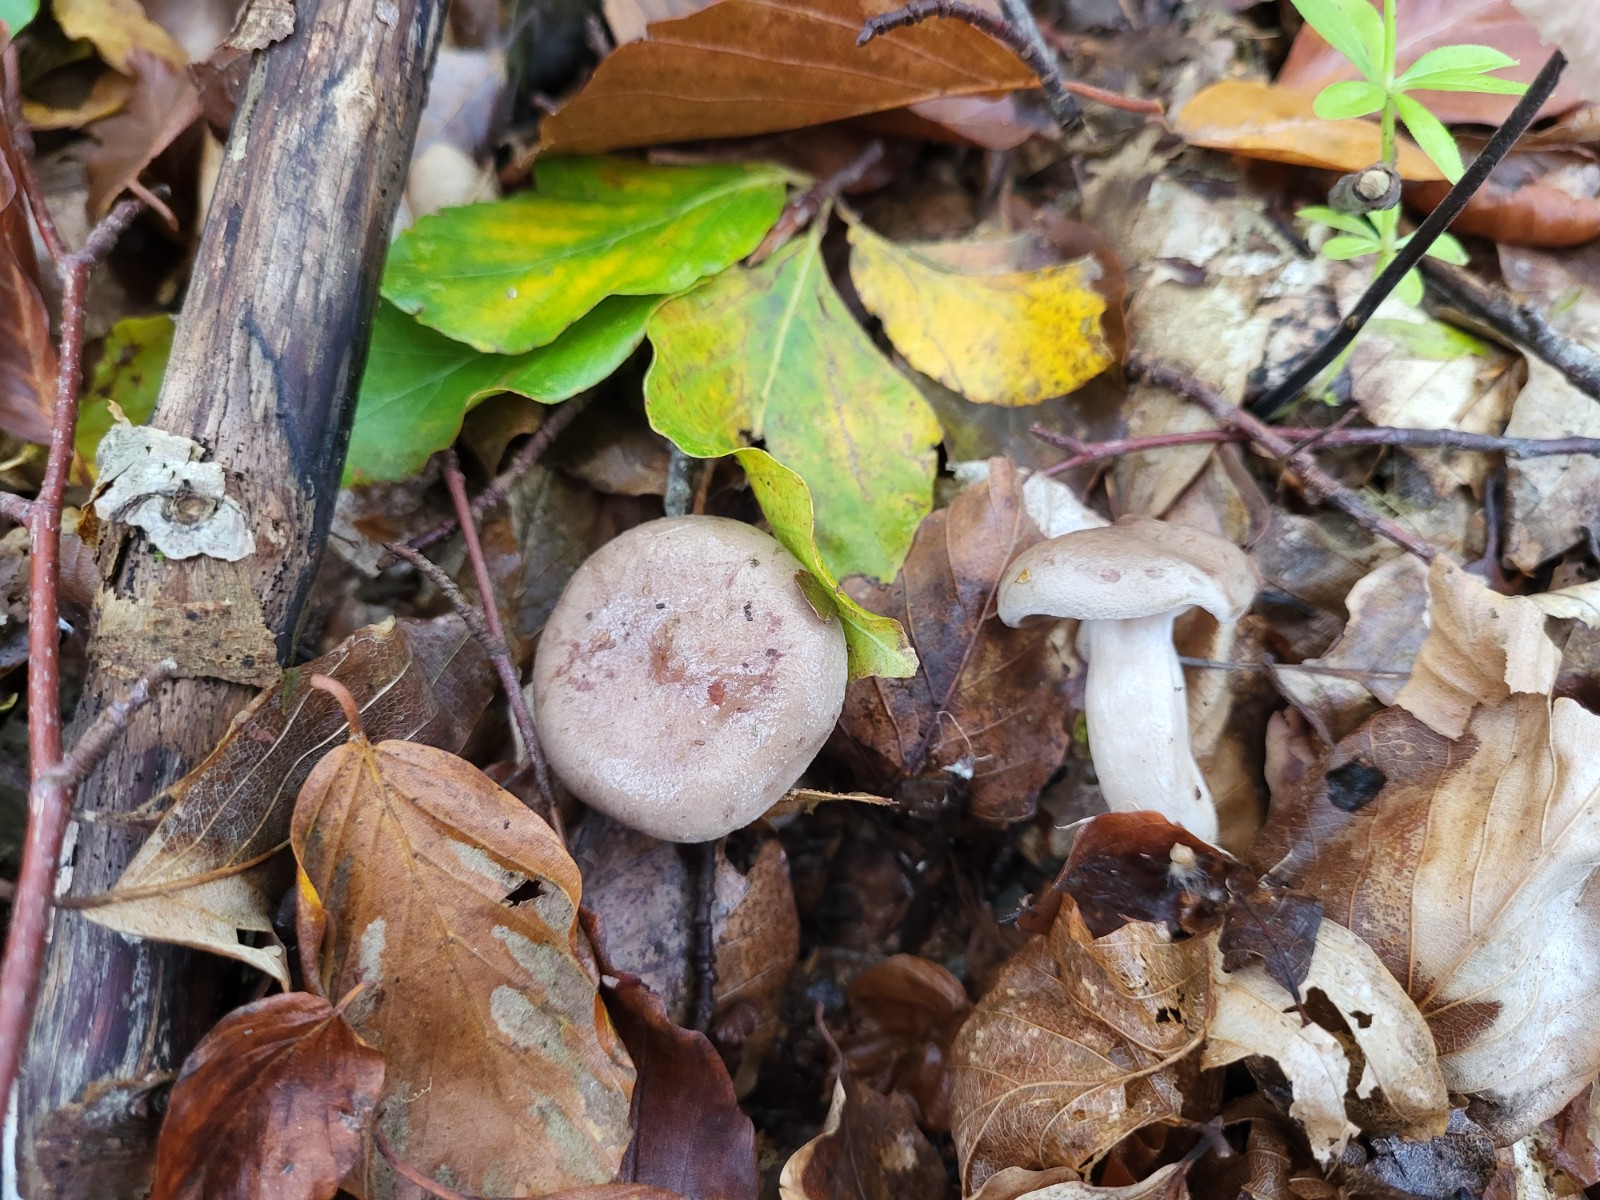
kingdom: Fungi
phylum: Basidiomycota
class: Agaricomycetes
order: Russulales
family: Russulaceae
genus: Lactarius
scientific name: Lactarius blennius
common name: dråbeplettet mælkehat
